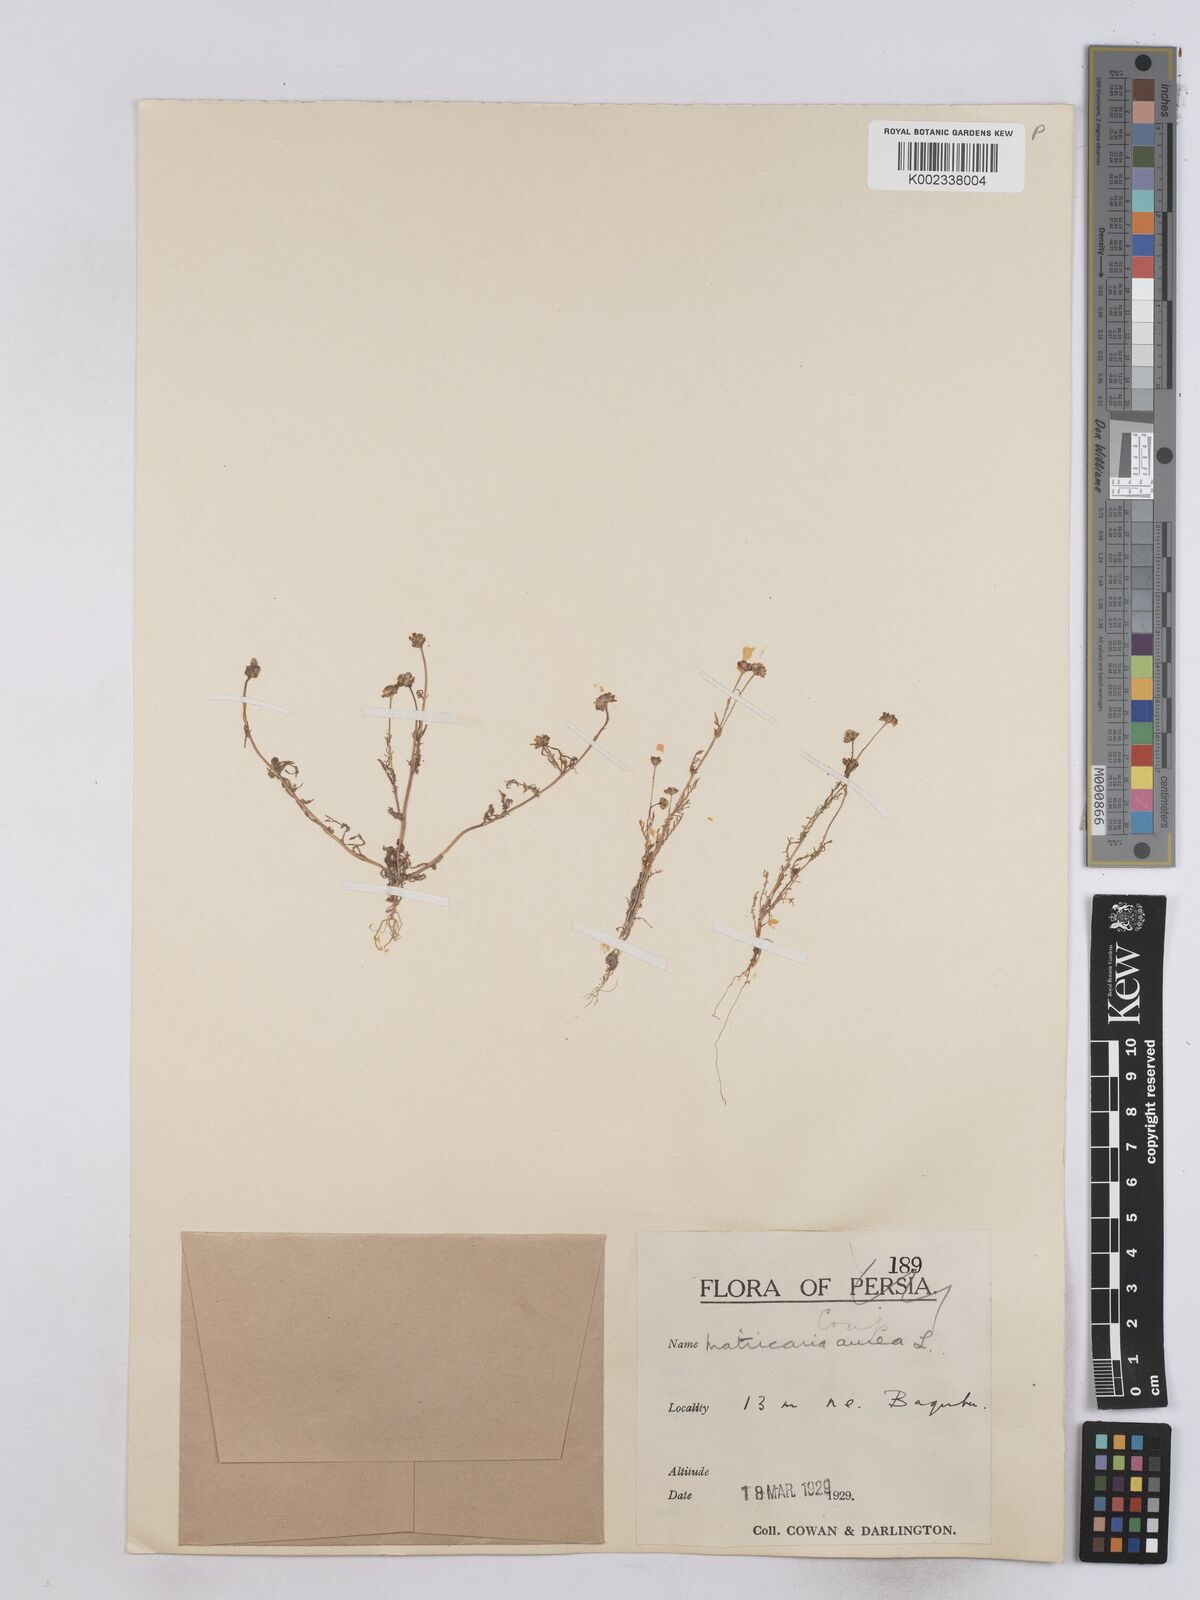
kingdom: Plantae
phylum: Tracheophyta
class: Magnoliopsida
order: Asterales
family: Asteraceae
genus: Matricaria
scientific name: Matricaria aurea
